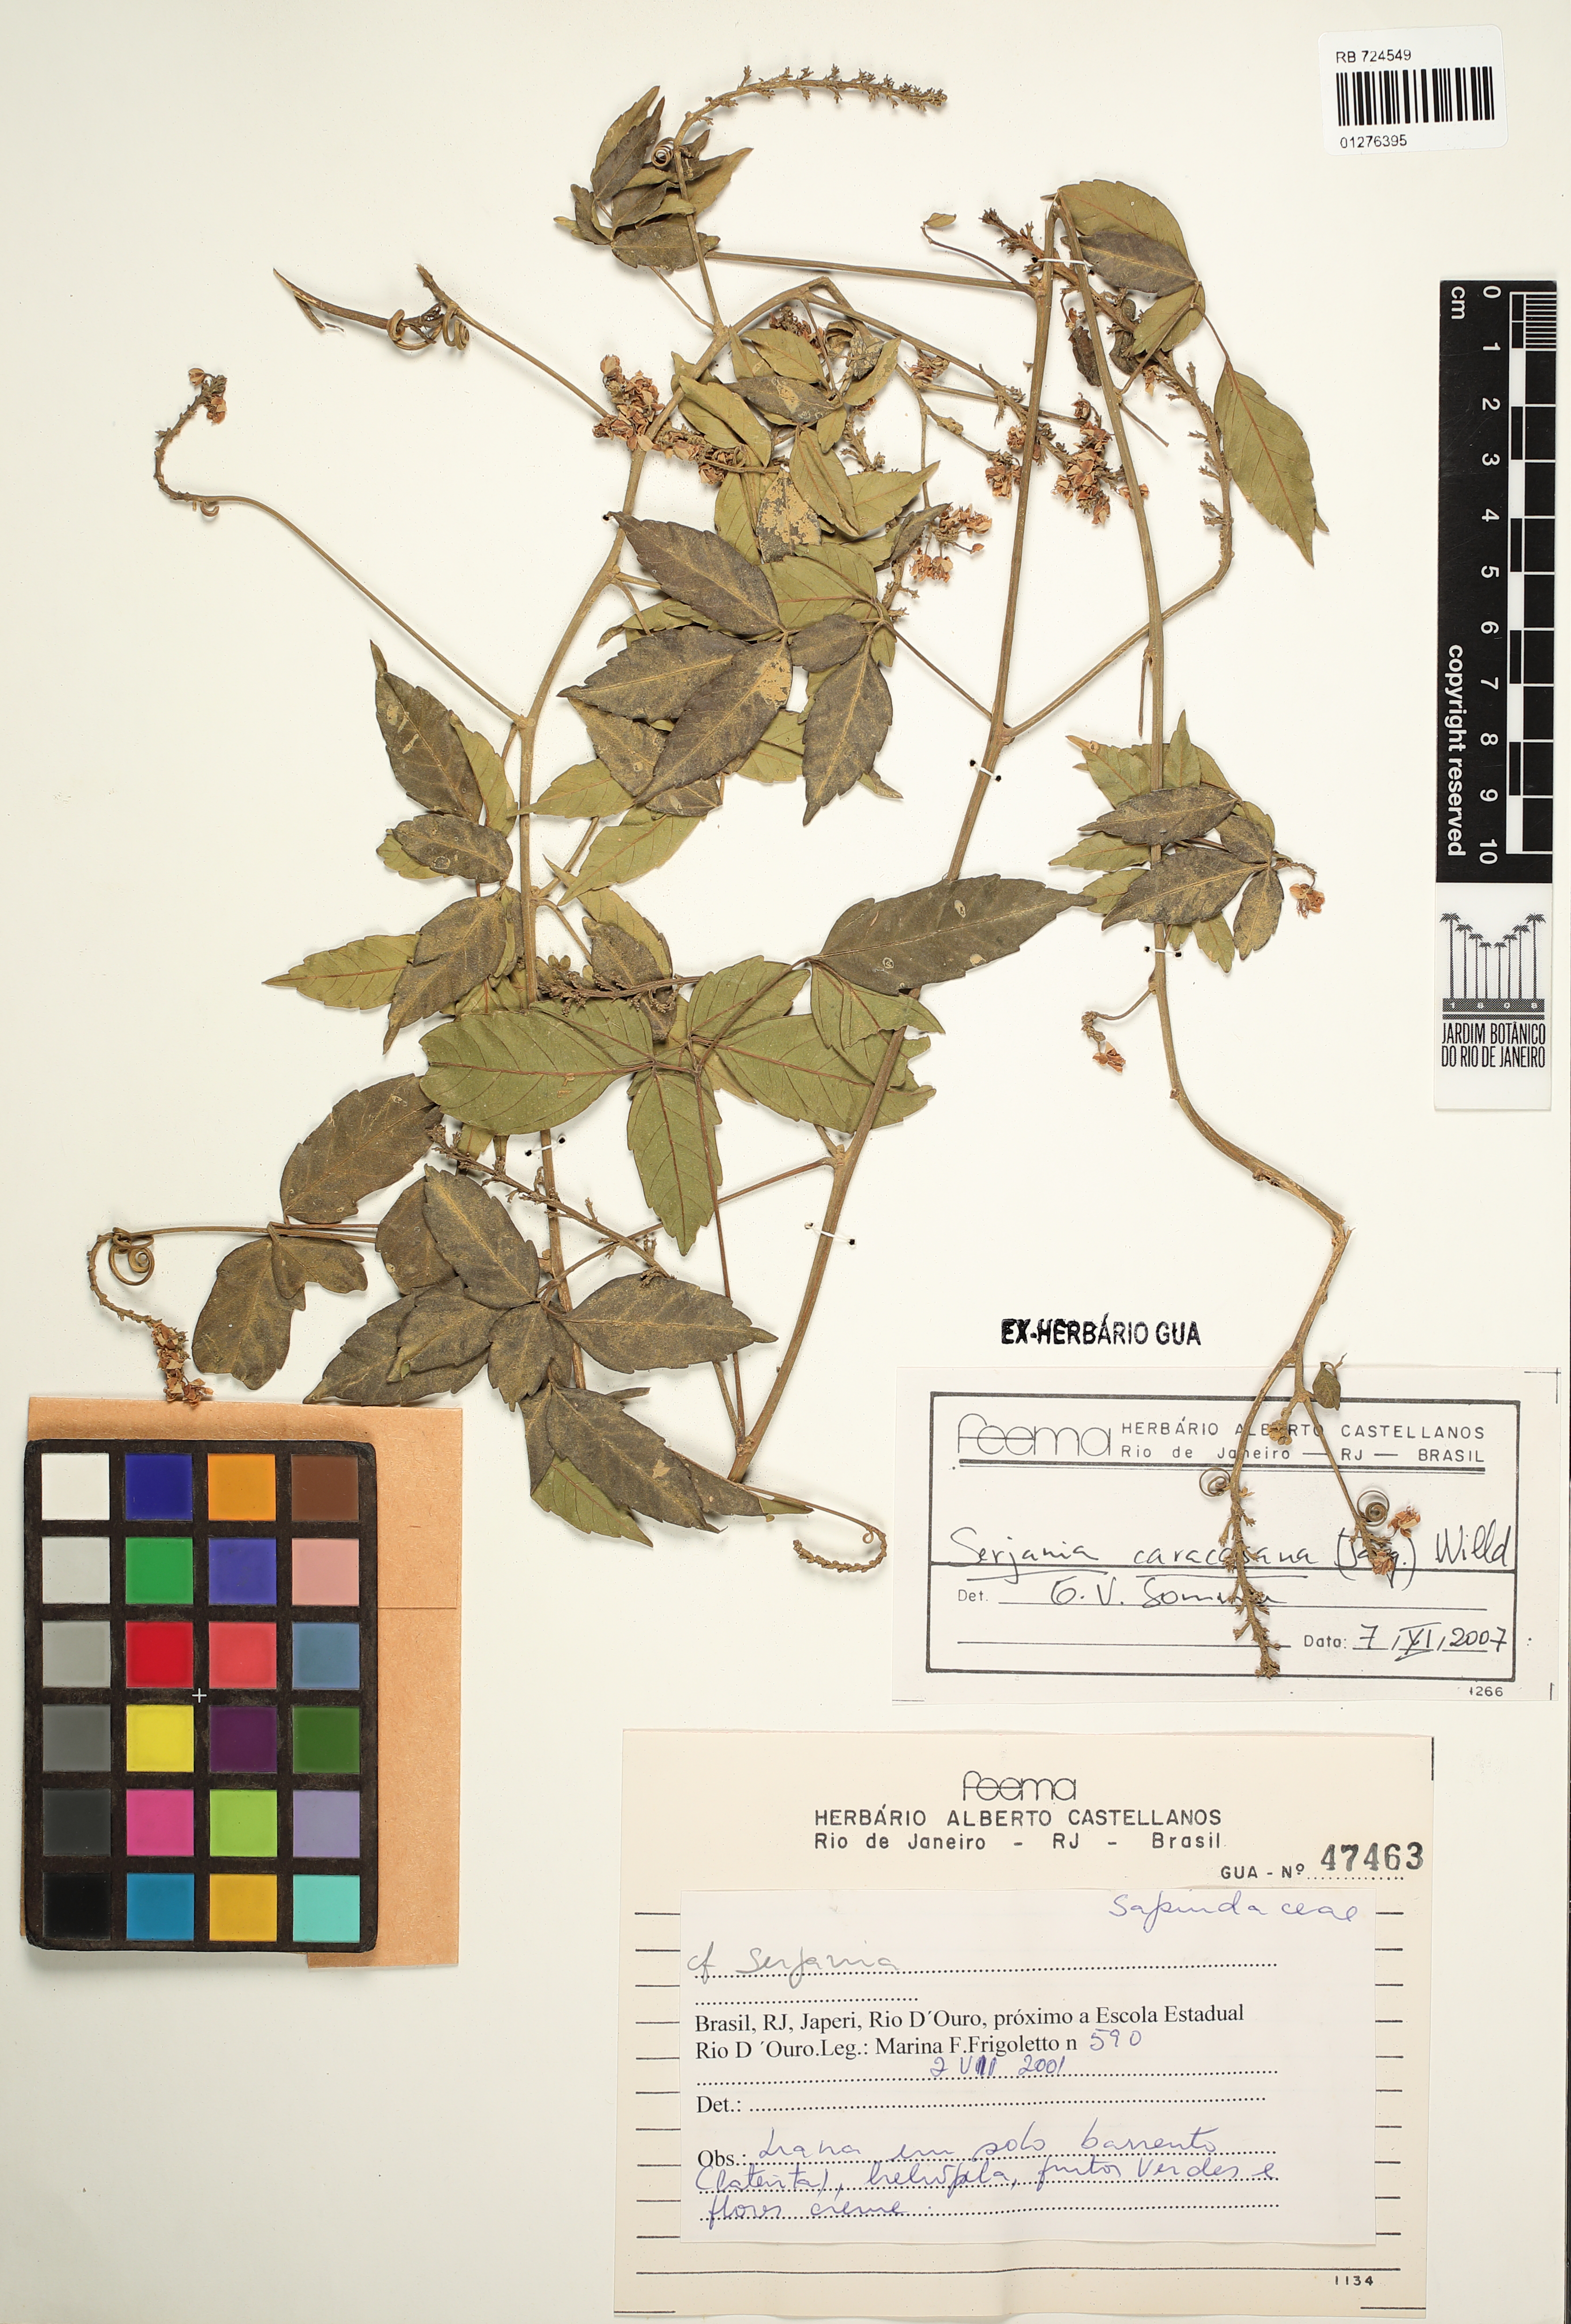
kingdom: Plantae
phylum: Tracheophyta
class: Magnoliopsida
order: Sapindales
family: Sapindaceae
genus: Serjania
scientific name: Serjania caracasana
